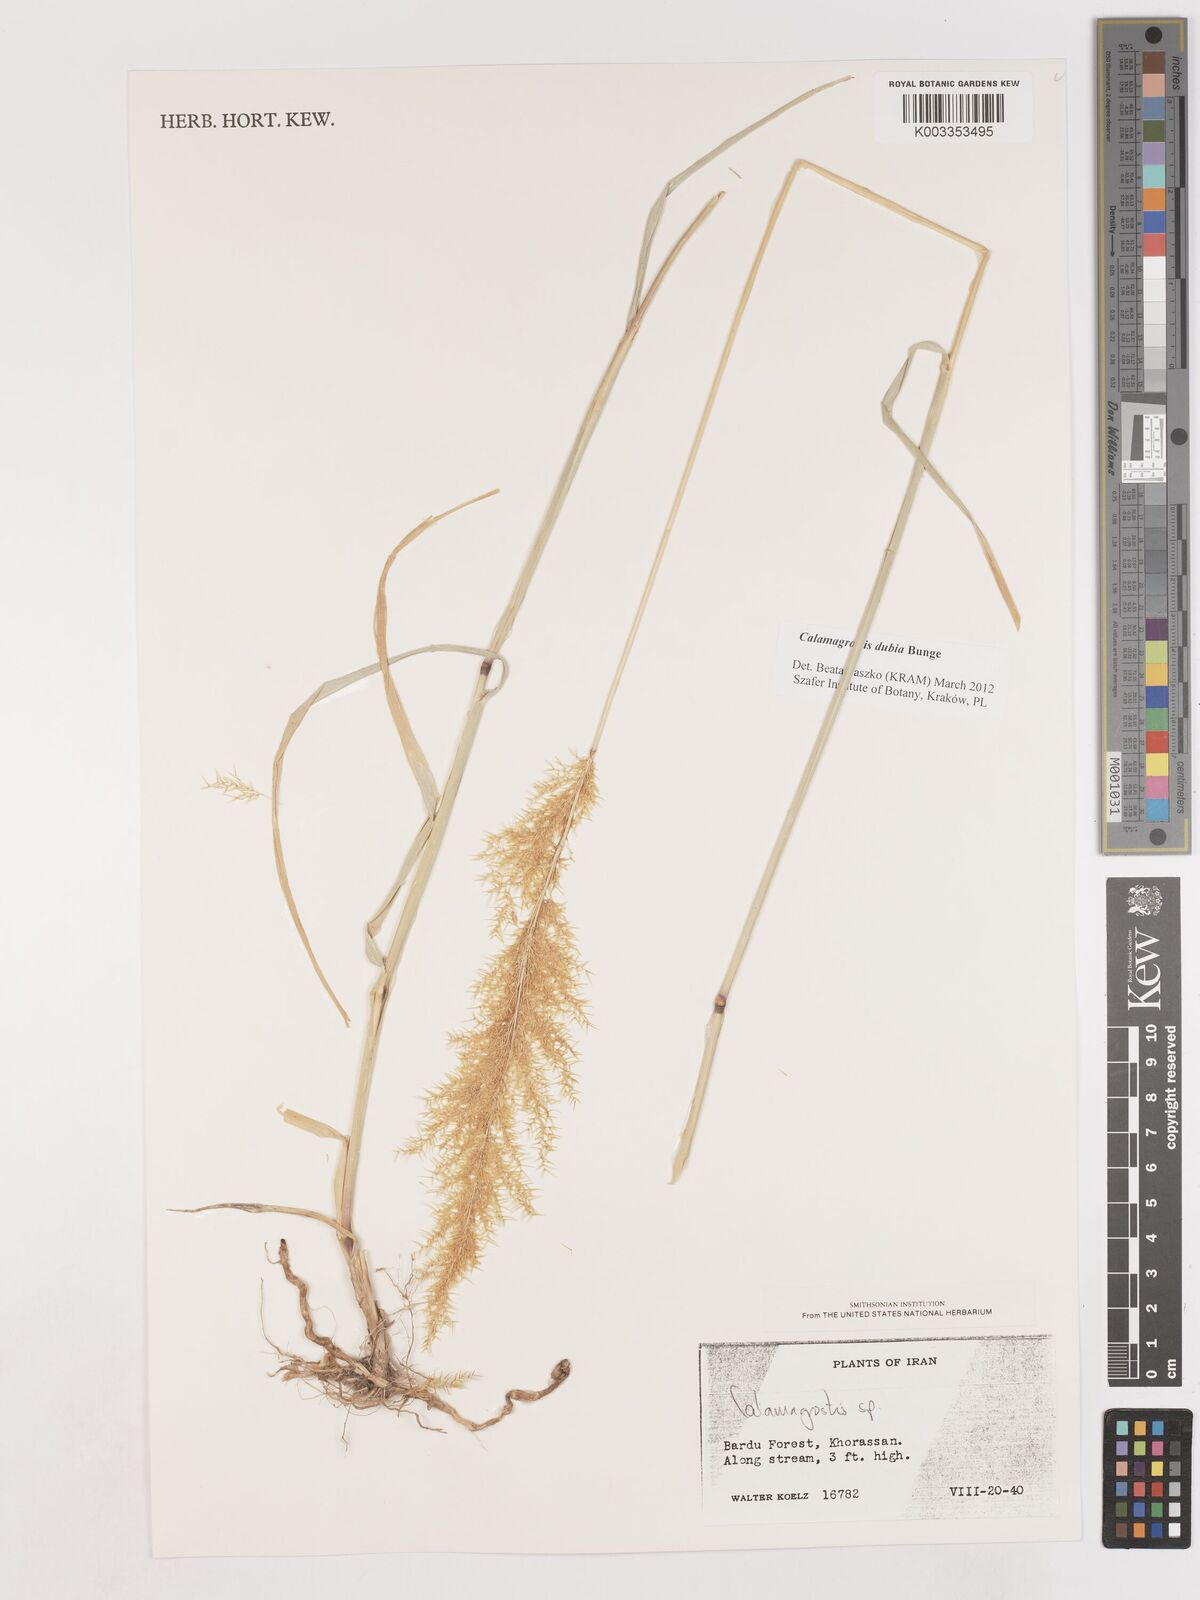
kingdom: Plantae
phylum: Tracheophyta
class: Liliopsida
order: Poales
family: Poaceae
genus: Calamagrostis
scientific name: Calamagrostis
